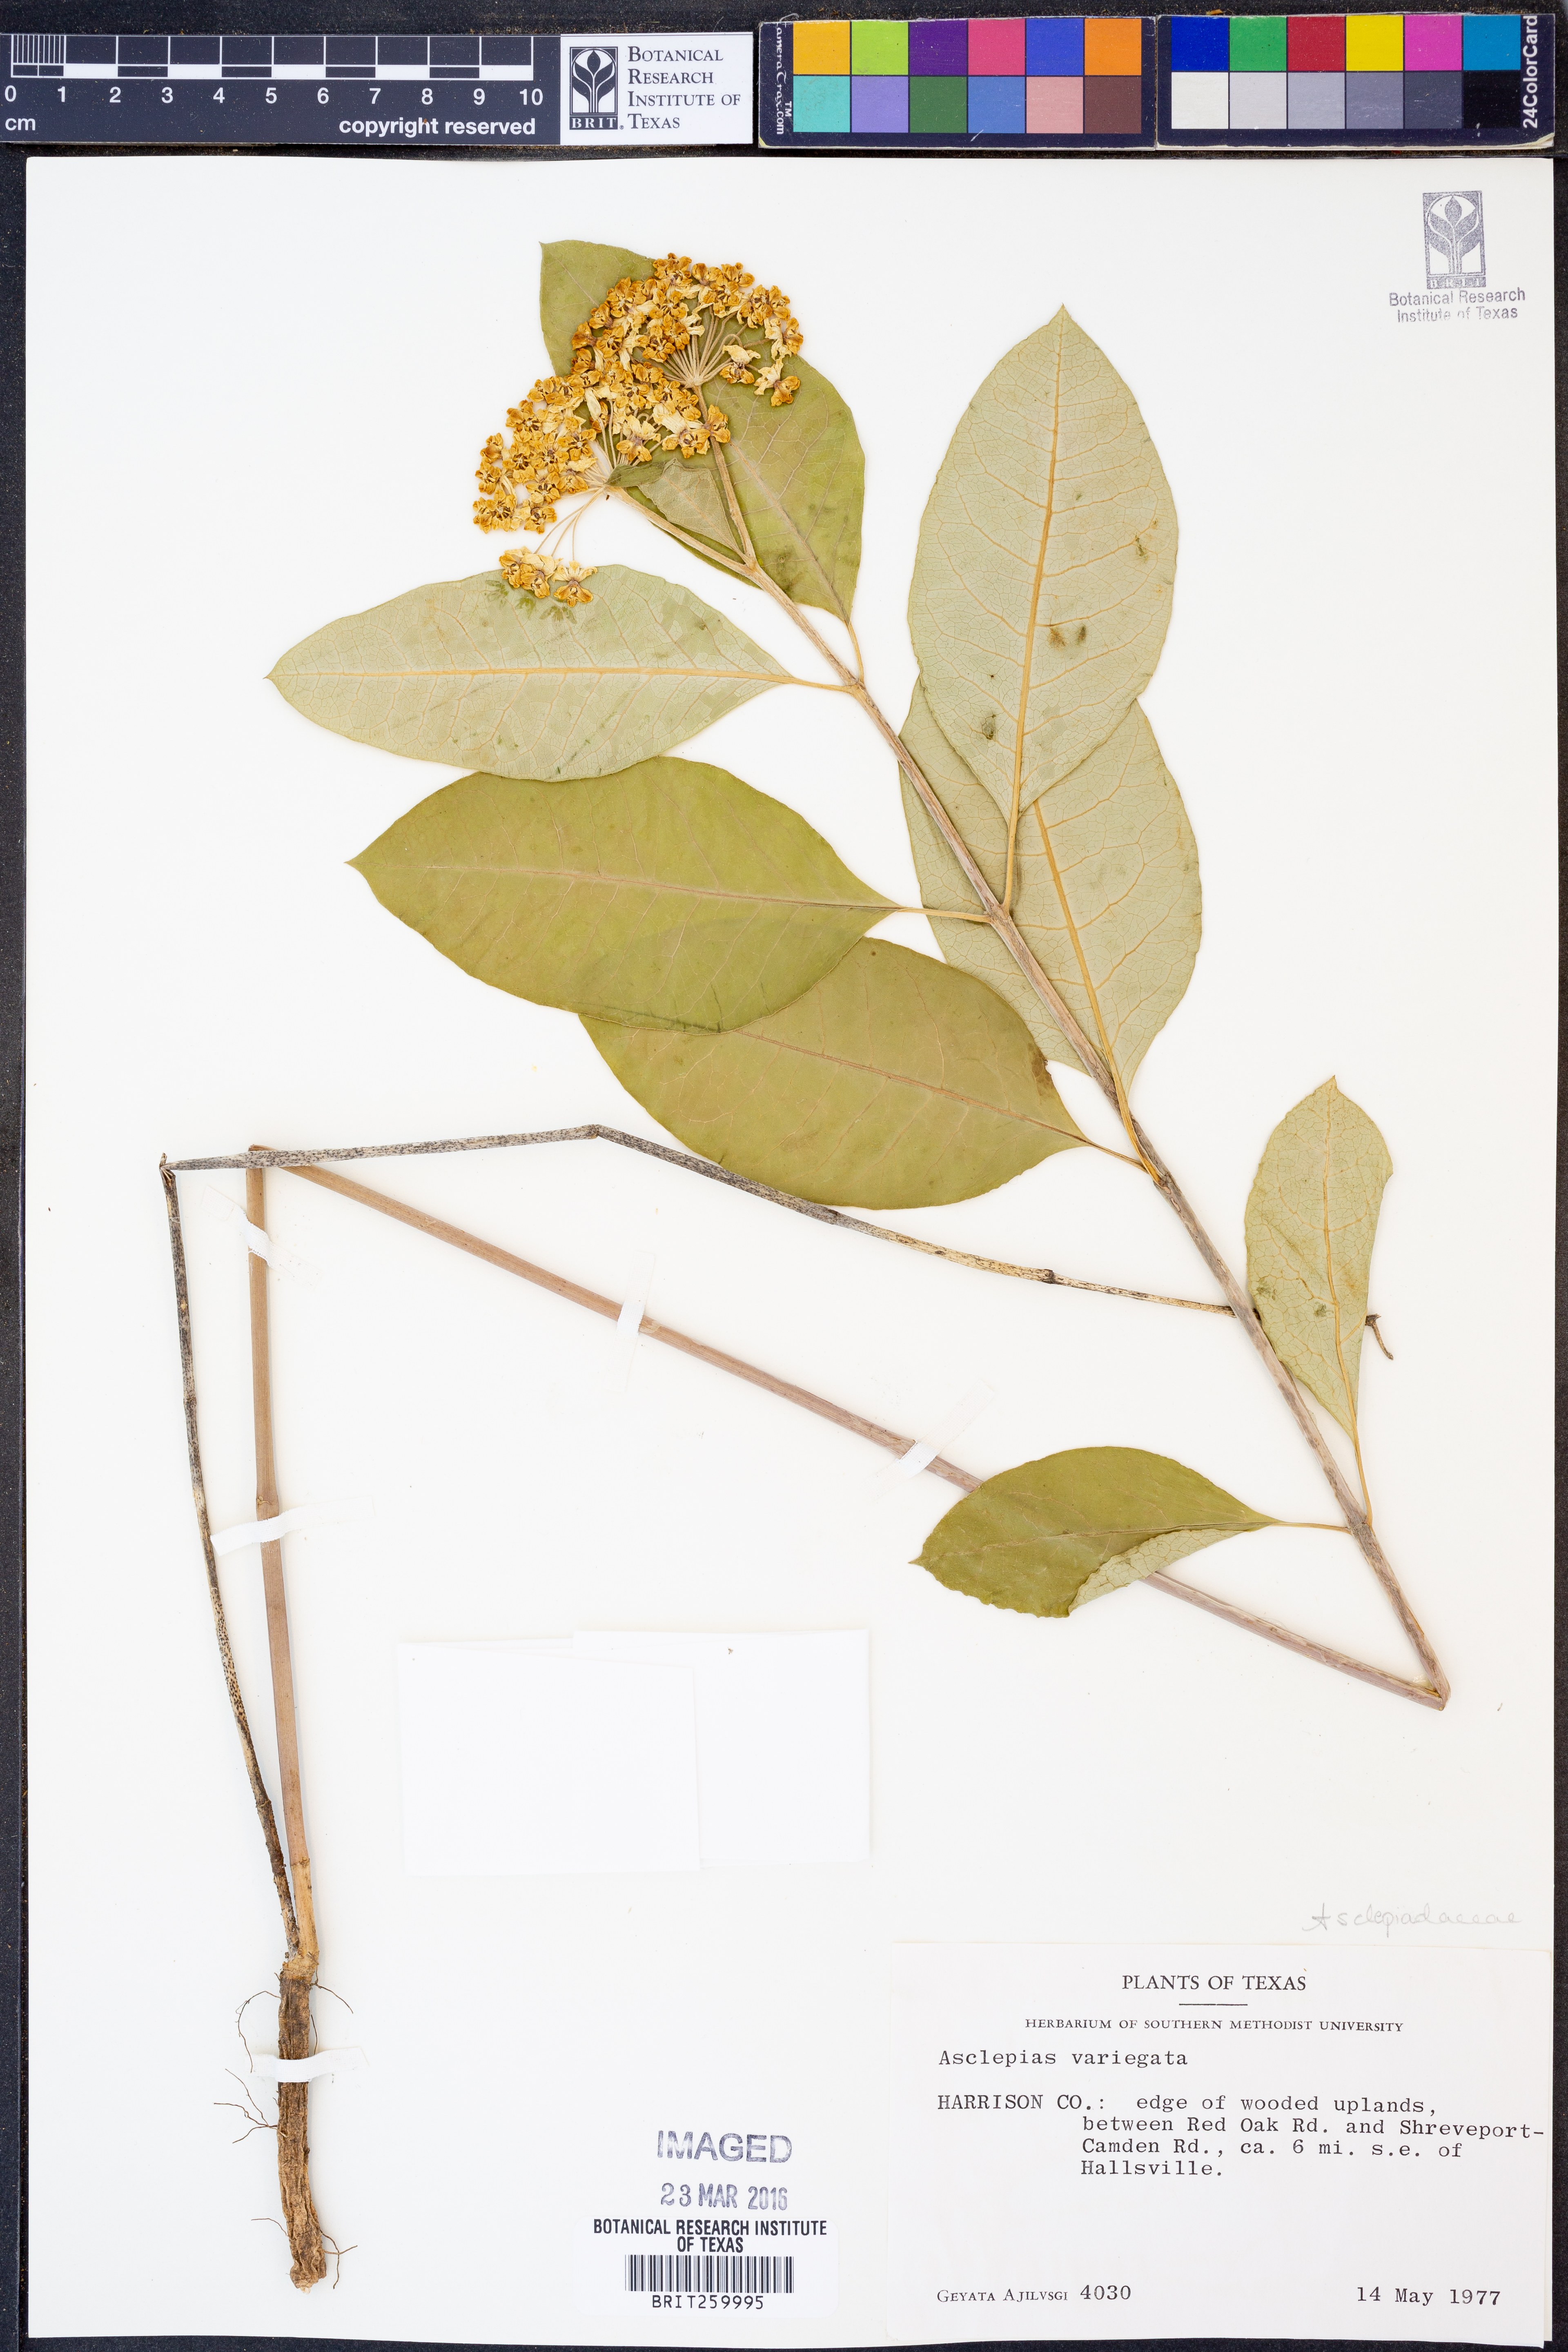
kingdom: Plantae
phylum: Tracheophyta
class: Magnoliopsida
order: Gentianales
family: Apocynaceae
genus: Asclepias
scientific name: Asclepias variegata
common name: Variegated milkweed
